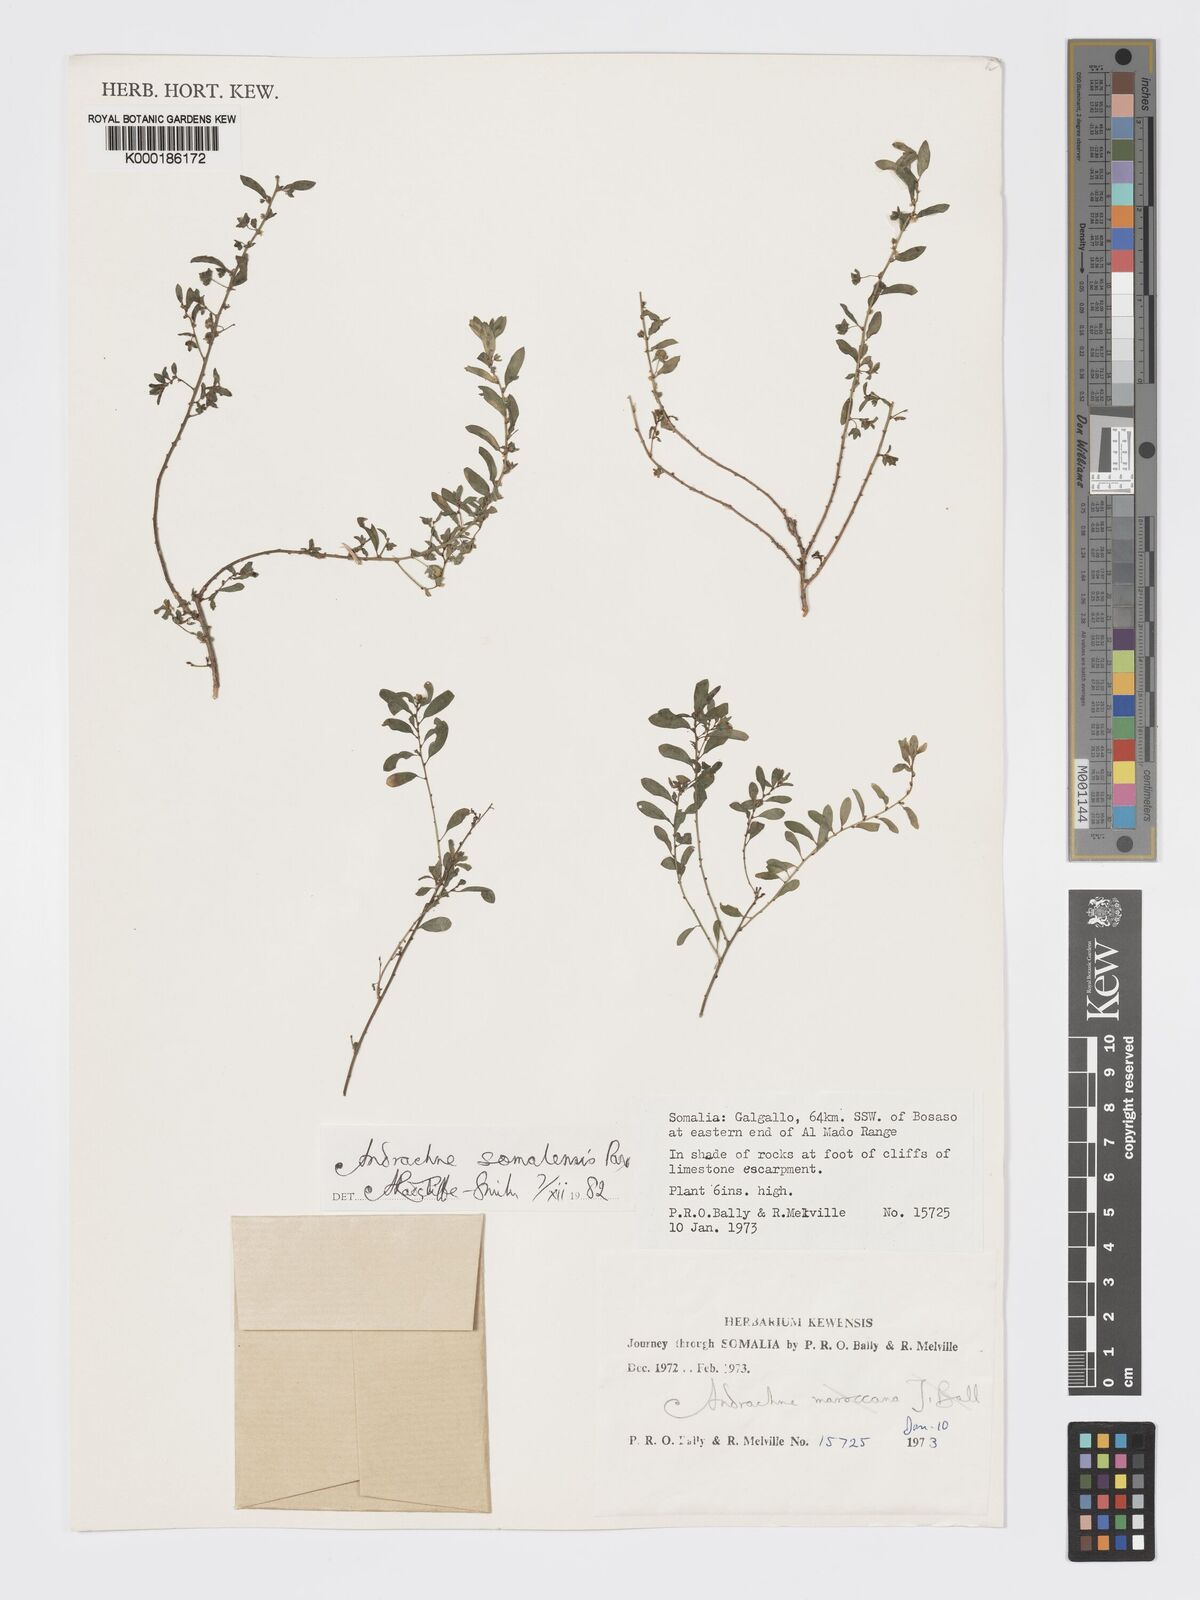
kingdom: Plantae
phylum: Tracheophyta
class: Magnoliopsida
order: Malpighiales
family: Phyllanthaceae
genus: Andrachne
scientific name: Andrachne schweinfurthii
